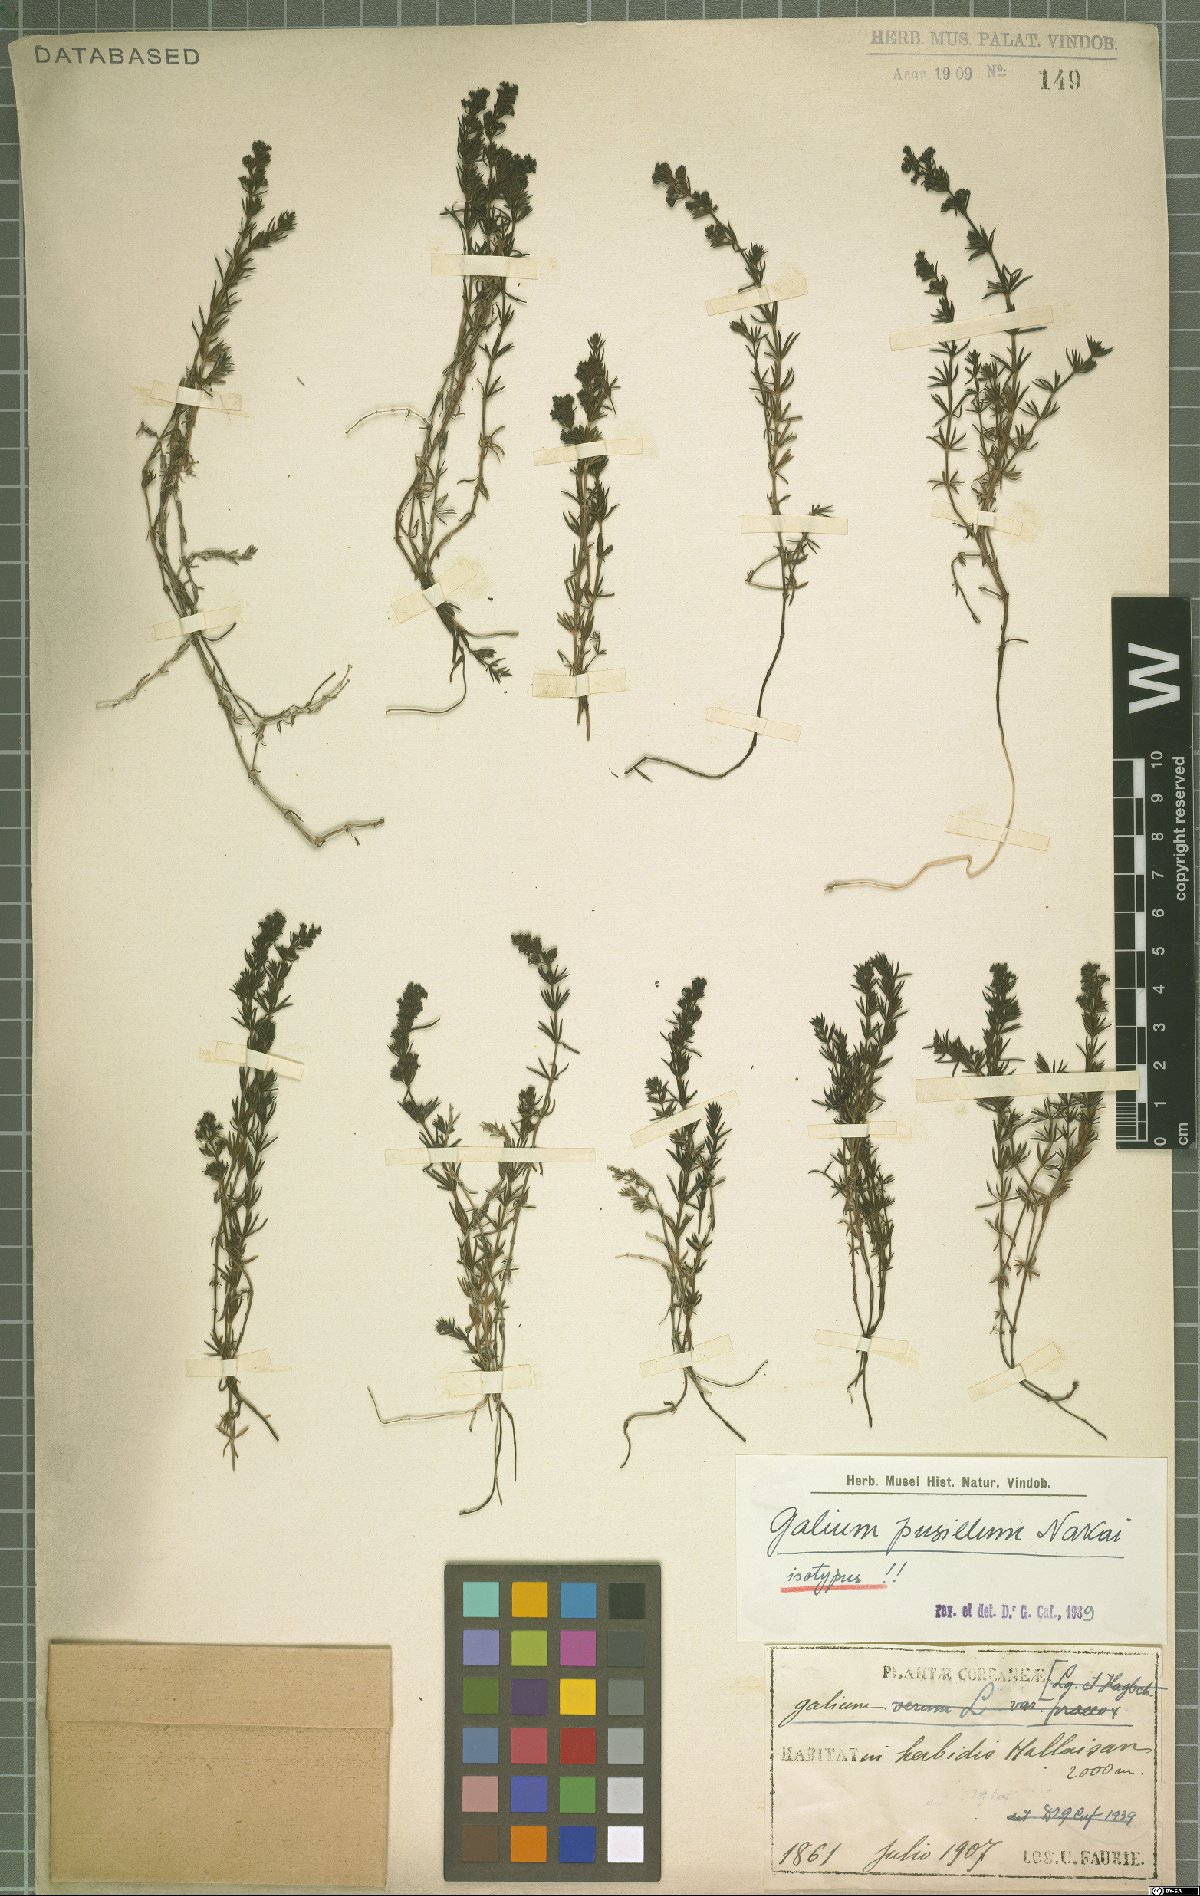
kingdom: Plantae
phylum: Tracheophyta
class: Magnoliopsida
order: Gentianales
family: Rubiaceae
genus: Galium
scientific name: Galium verum
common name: Lady's bedstraw
